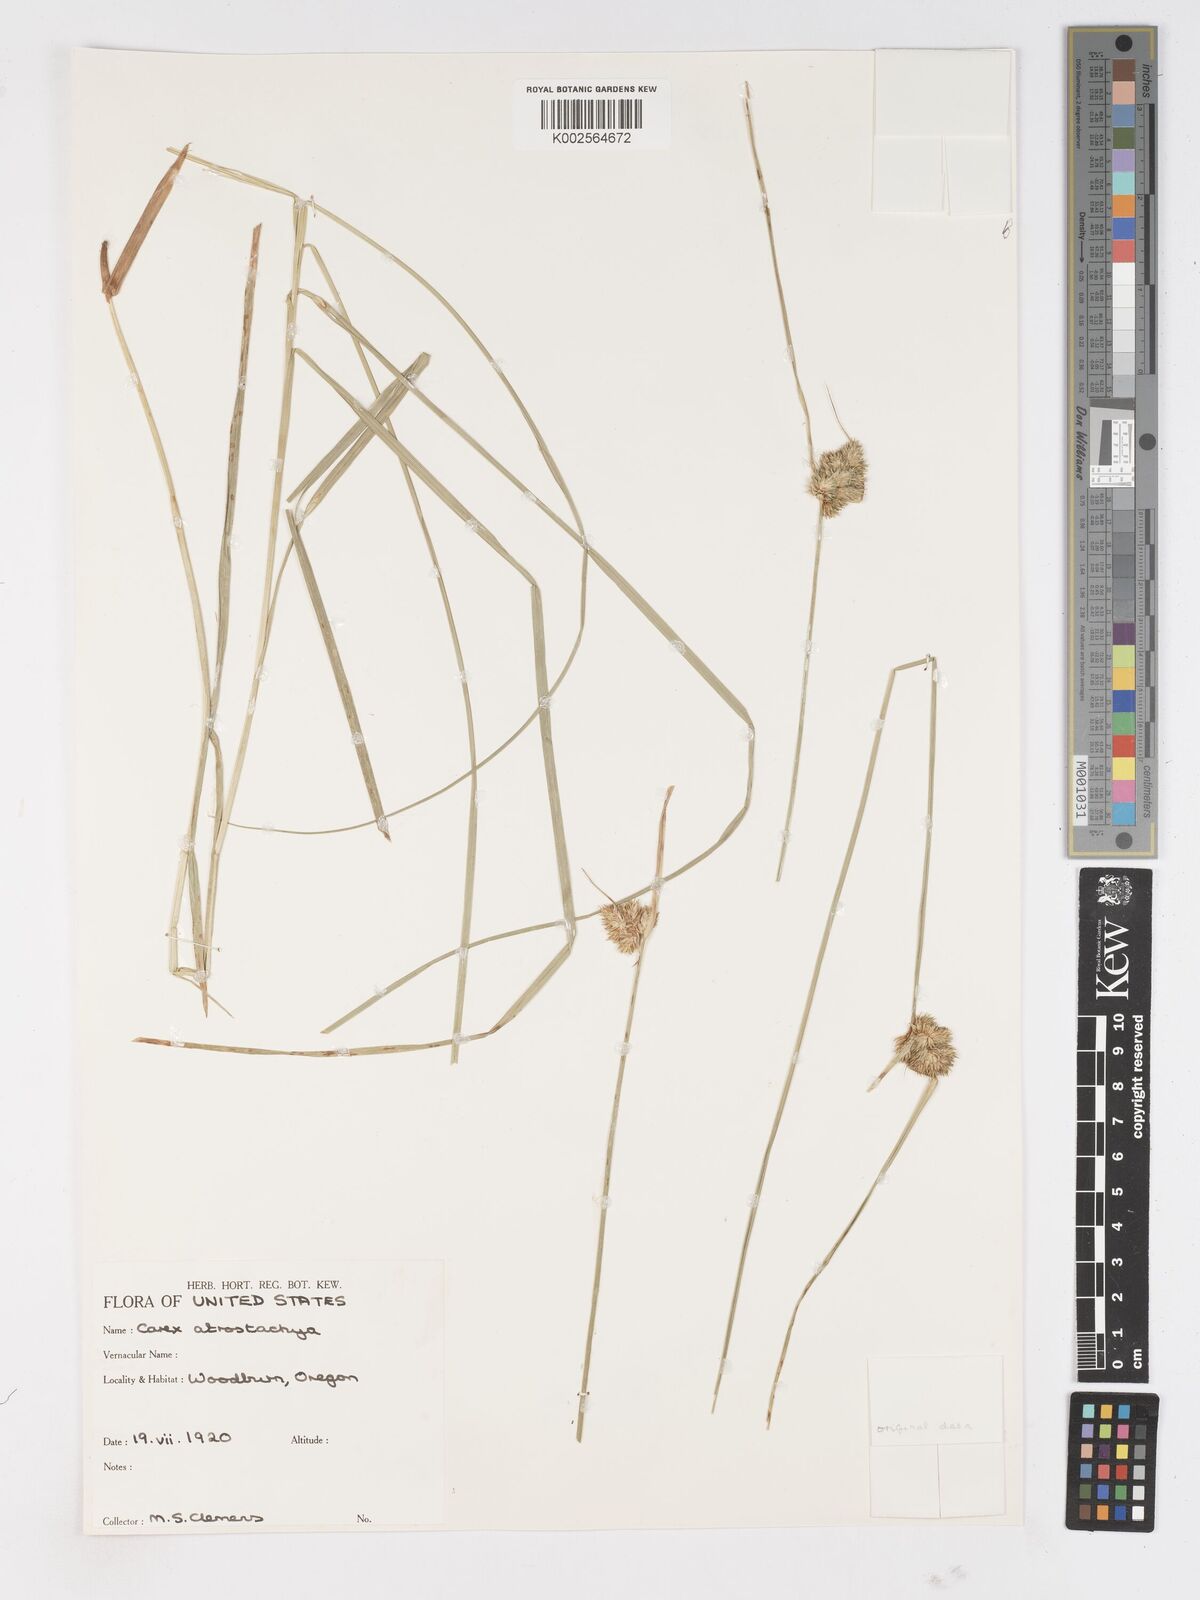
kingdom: Plantae
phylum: Tracheophyta
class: Liliopsida
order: Poales
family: Cyperaceae
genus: Carex
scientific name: Carex
